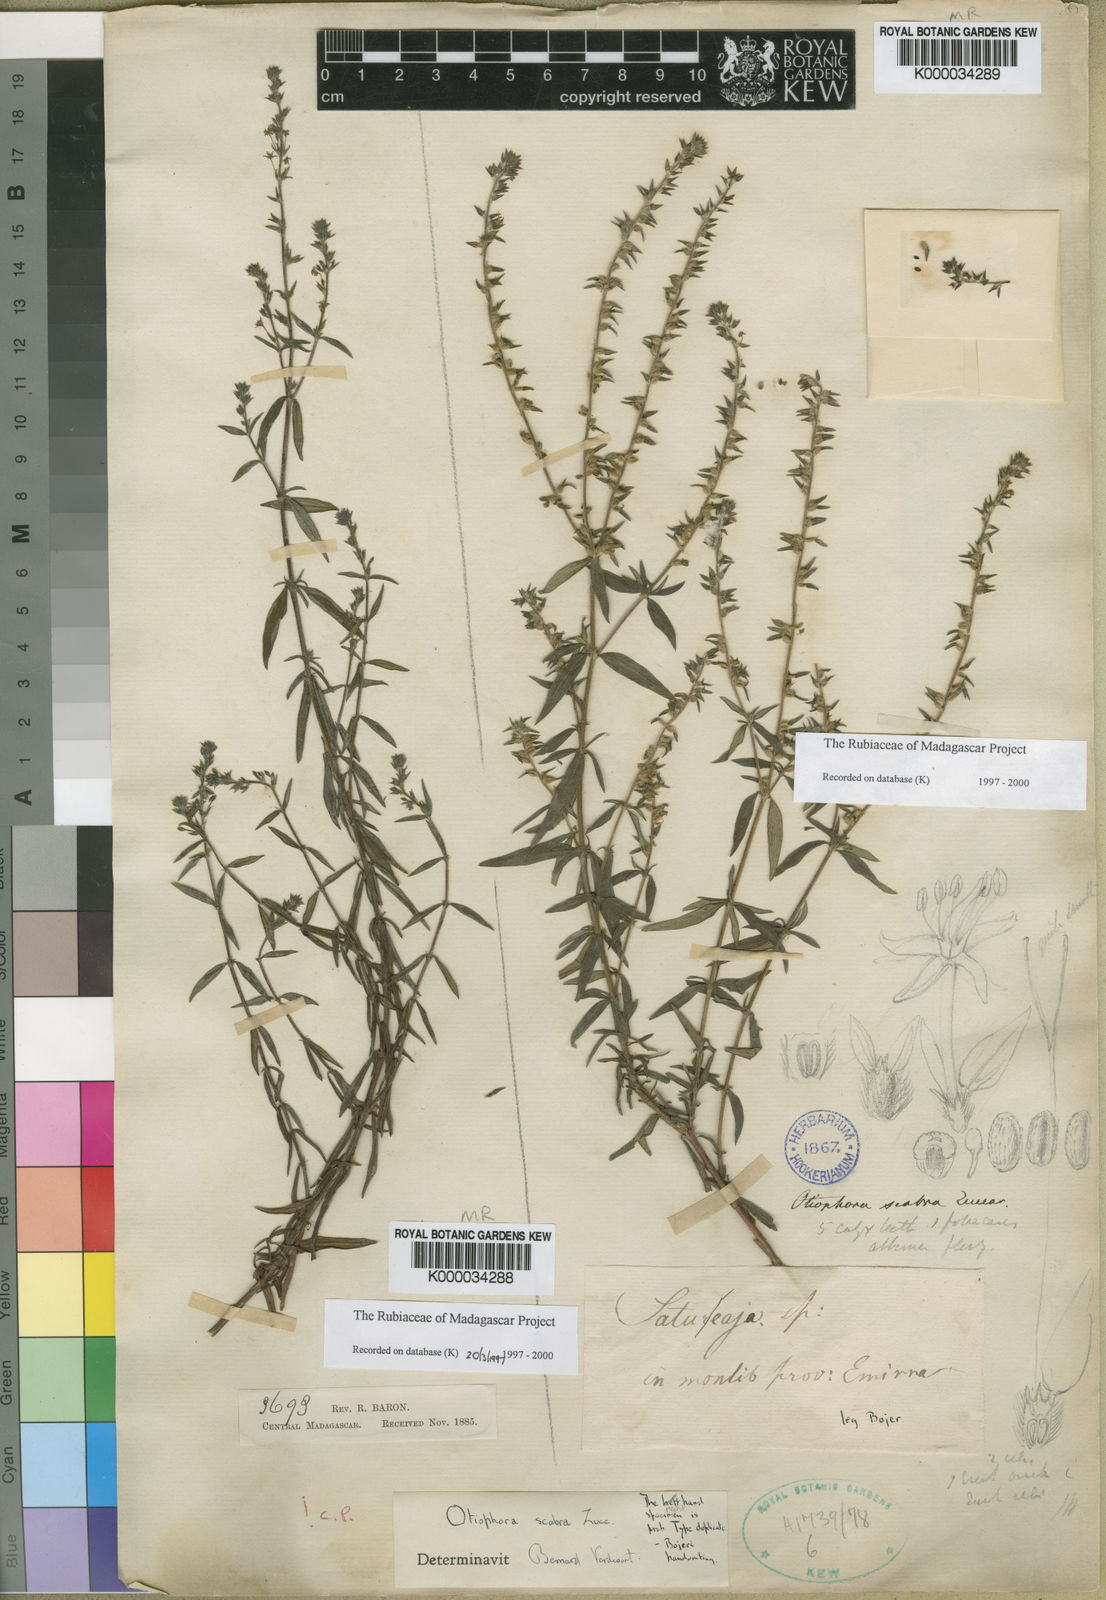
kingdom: Plantae
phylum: Tracheophyta
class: Magnoliopsida
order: Gentianales
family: Rubiaceae
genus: Otiophora
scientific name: Otiophora scabra
